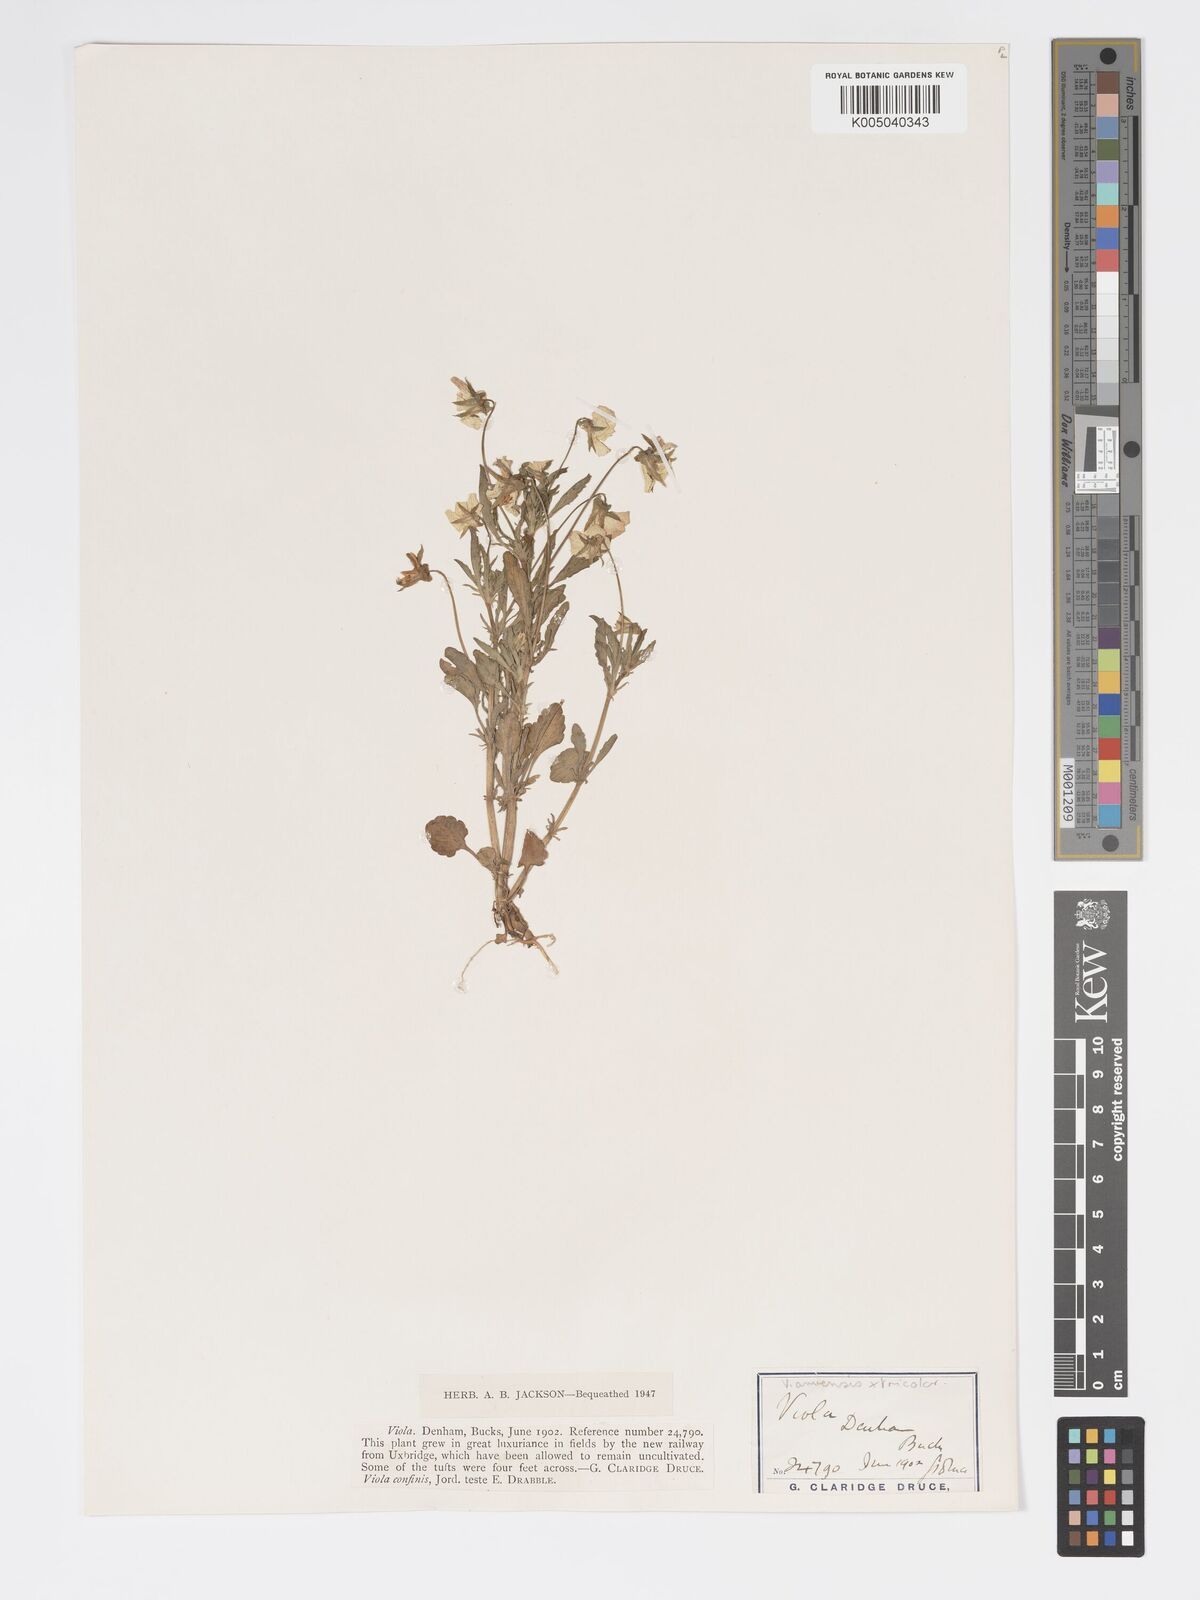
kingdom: Plantae
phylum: Tracheophyta
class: Magnoliopsida
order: Malpighiales
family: Violaceae
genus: Viola
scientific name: Viola arvensis
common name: Field pansy
